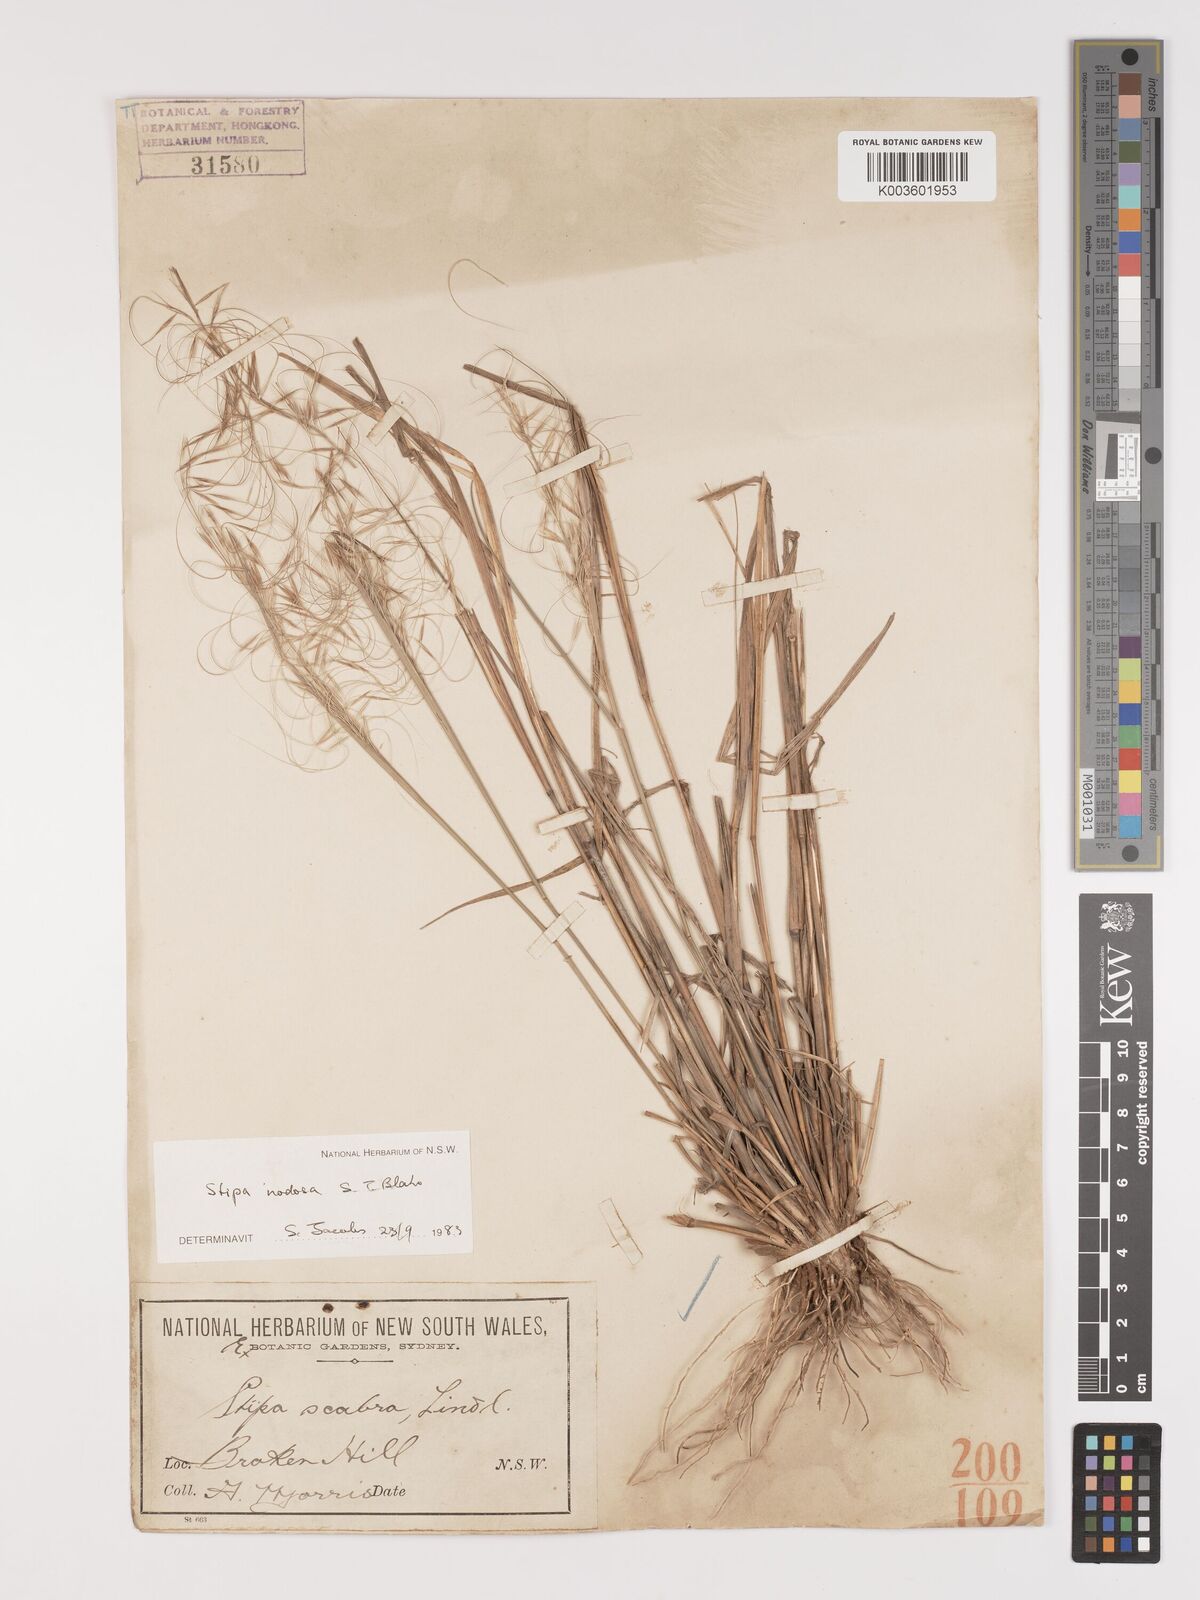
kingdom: Plantae
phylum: Tracheophyta
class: Liliopsida
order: Poales
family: Poaceae
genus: Austrostipa
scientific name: Austrostipa nodosa
